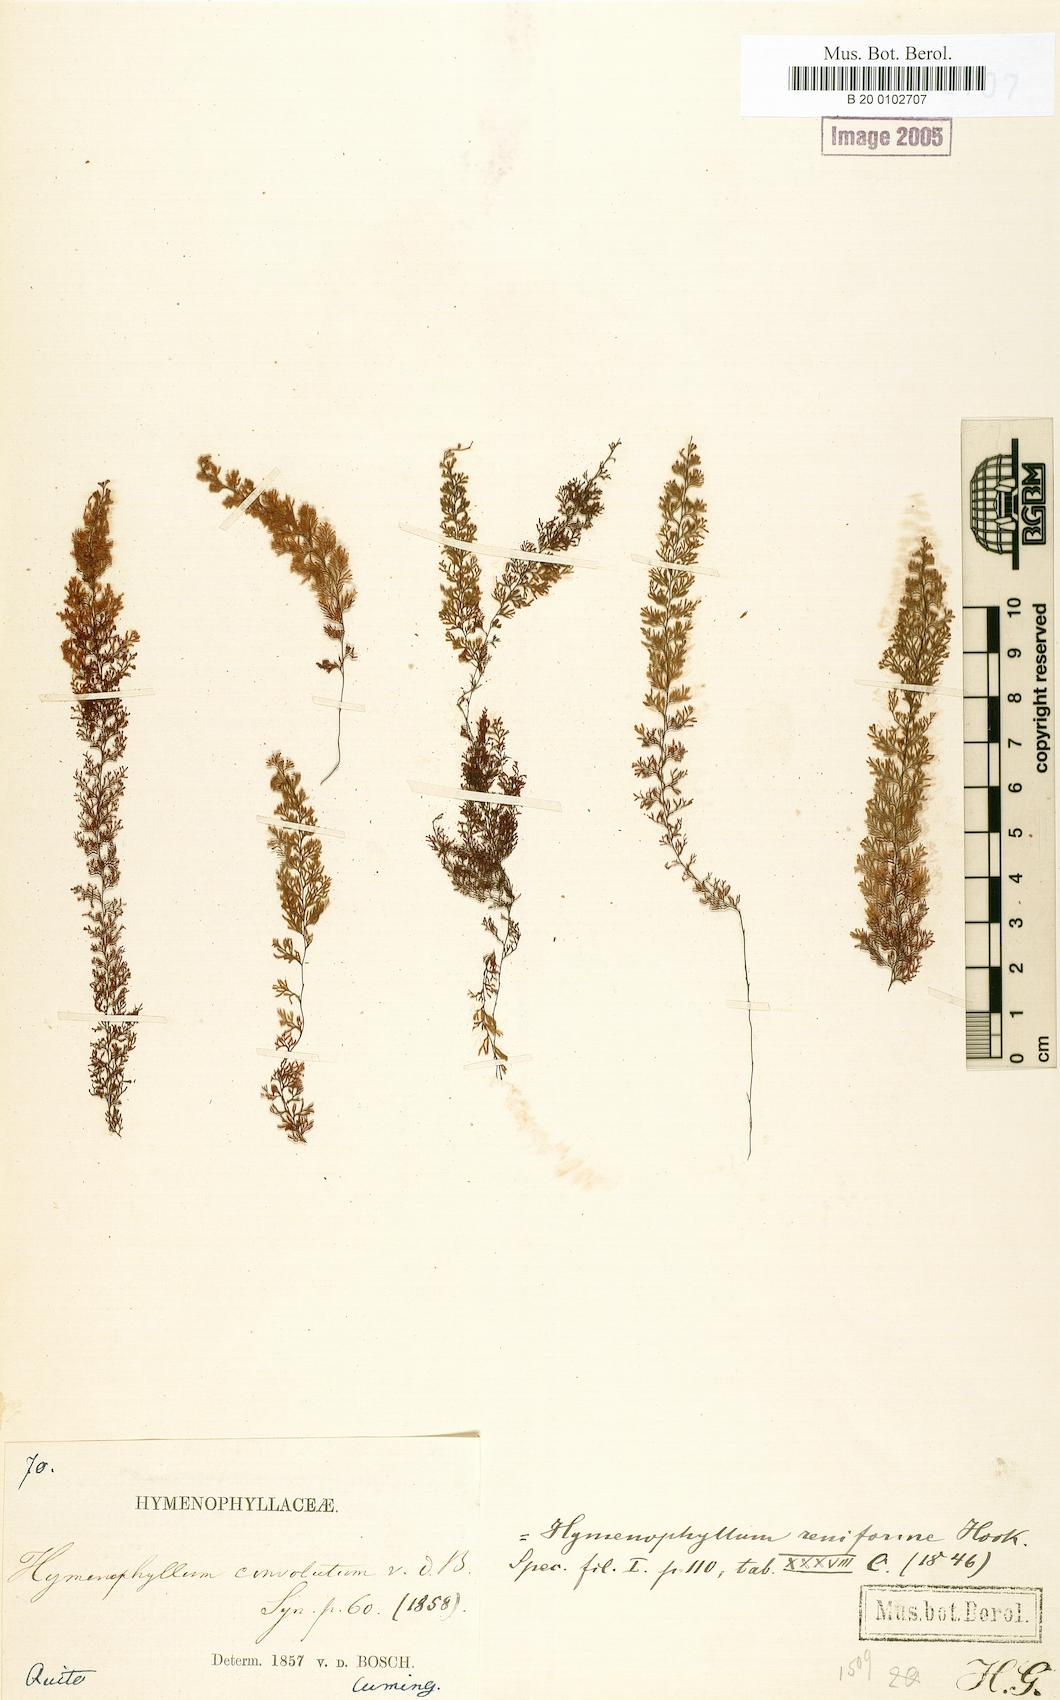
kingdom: Plantae
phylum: Tracheophyta
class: Polypodiopsida
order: Hymenophyllales
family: Hymenophyllaceae
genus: Hymenophyllum
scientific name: Hymenophyllum undulatum
